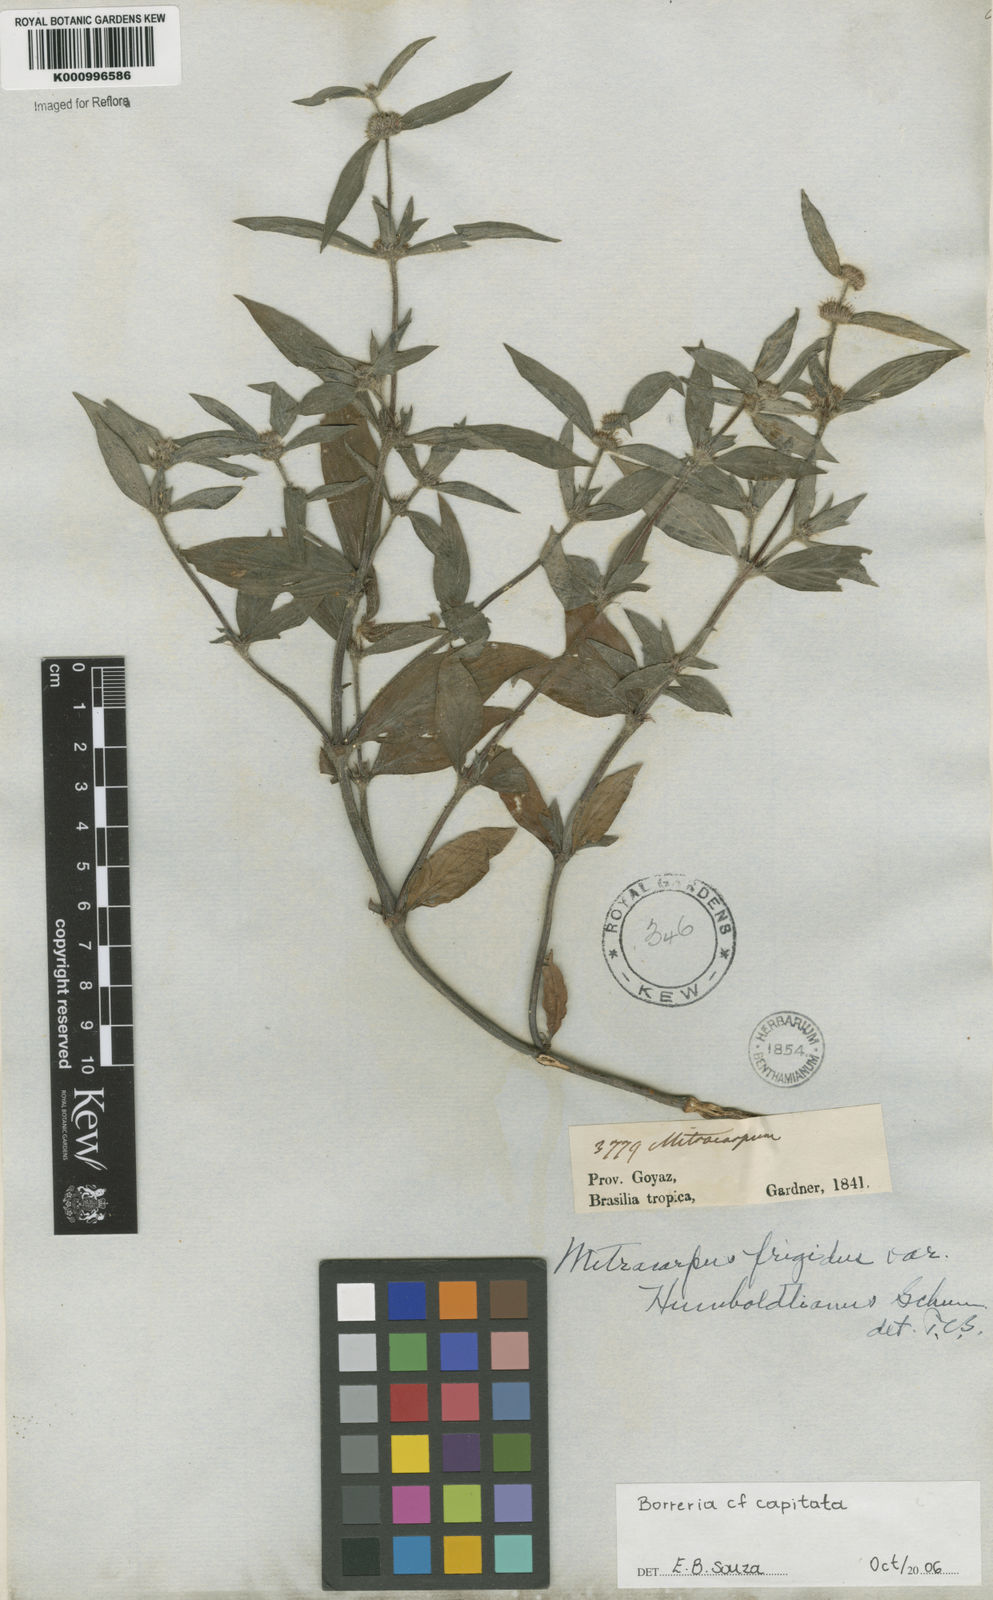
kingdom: Plantae
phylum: Tracheophyta
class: Magnoliopsida
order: Gentianales
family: Rubiaceae
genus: Spermacoce
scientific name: Spermacoce capitata
